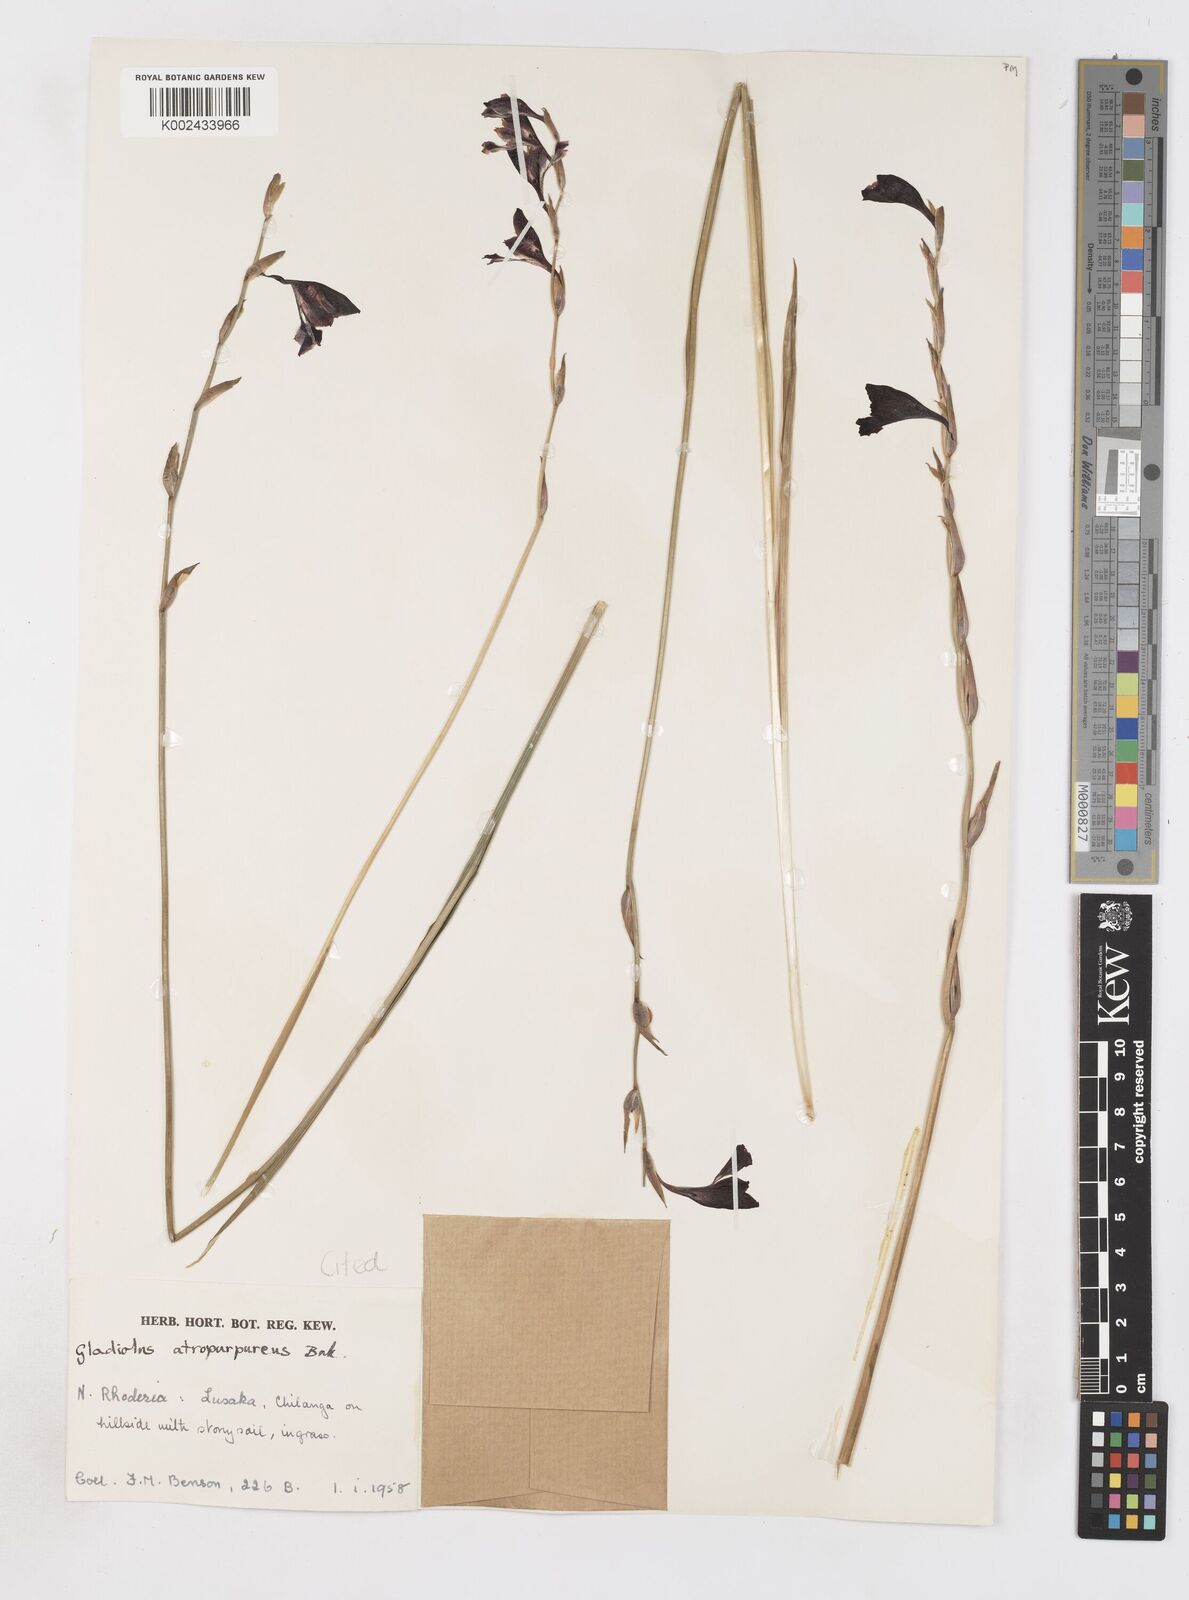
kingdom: Plantae
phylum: Tracheophyta
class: Liliopsida
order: Asparagales
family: Iridaceae
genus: Gladiolus
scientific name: Gladiolus atropurpureus
